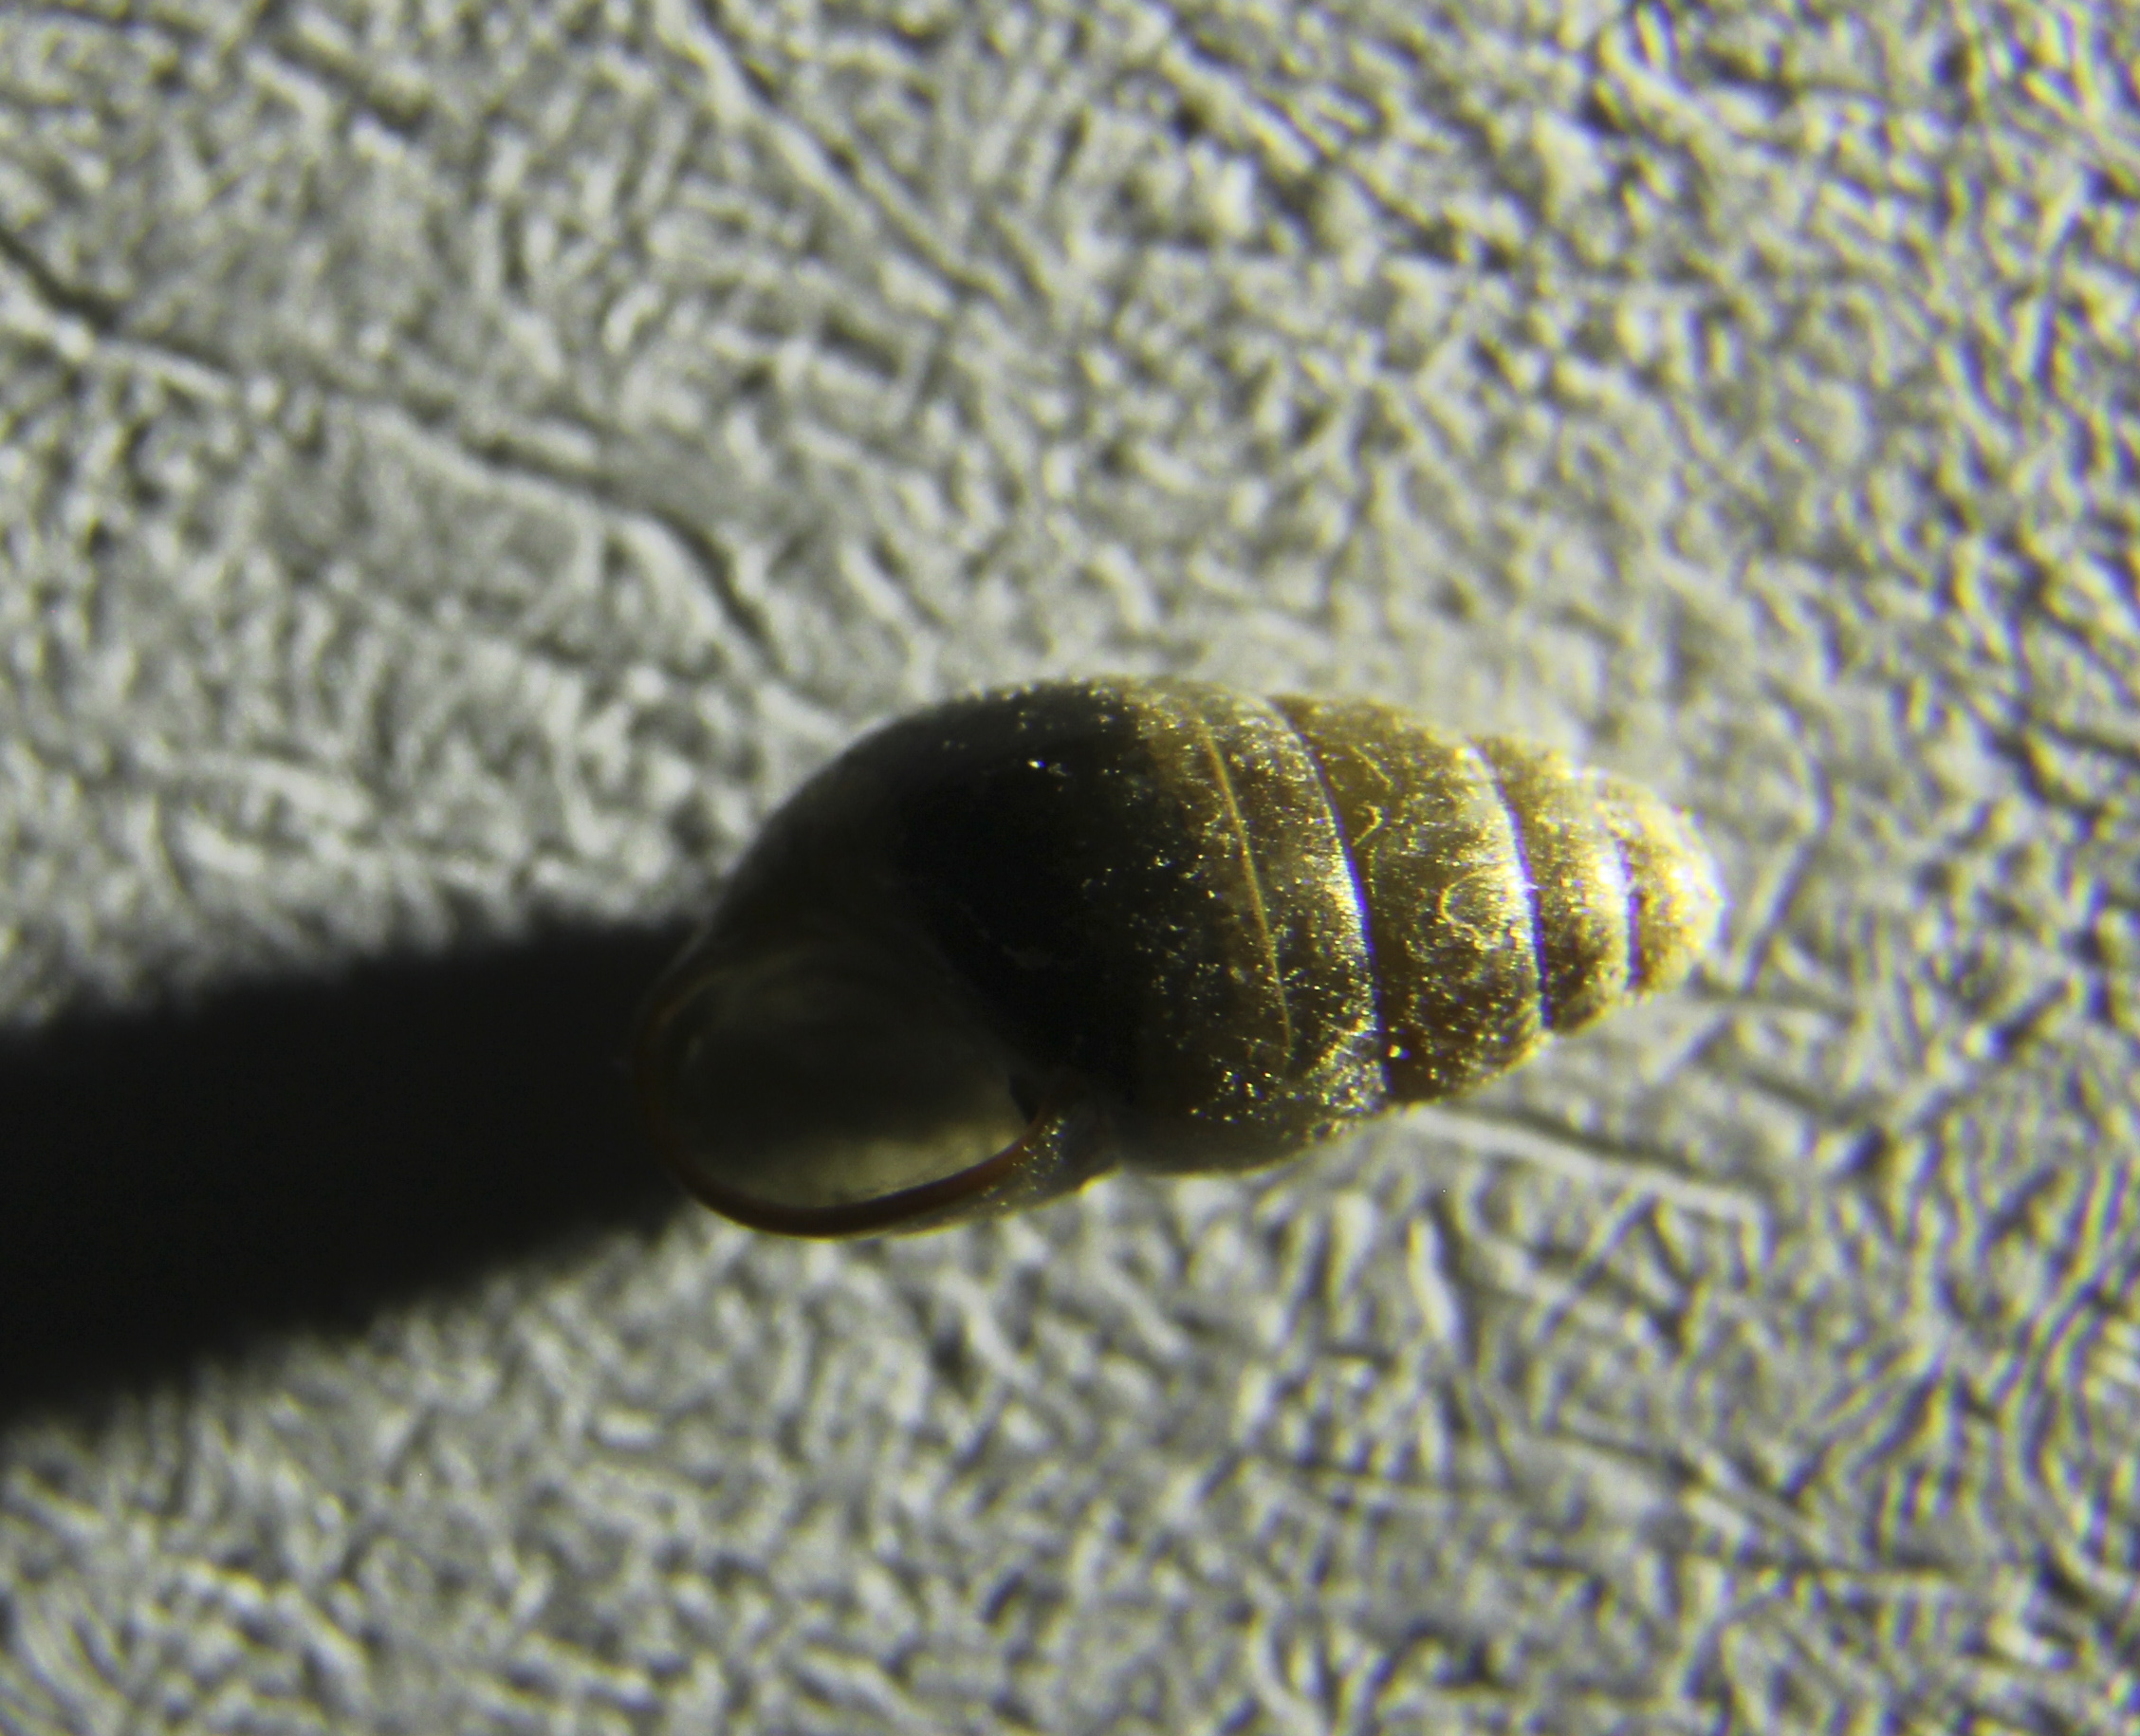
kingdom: Animalia
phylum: Mollusca
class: Gastropoda
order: Stylommatophora
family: Cochlicopidae
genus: Cochlicopa
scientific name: Cochlicopa lubrica
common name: Glossy pillar snail
